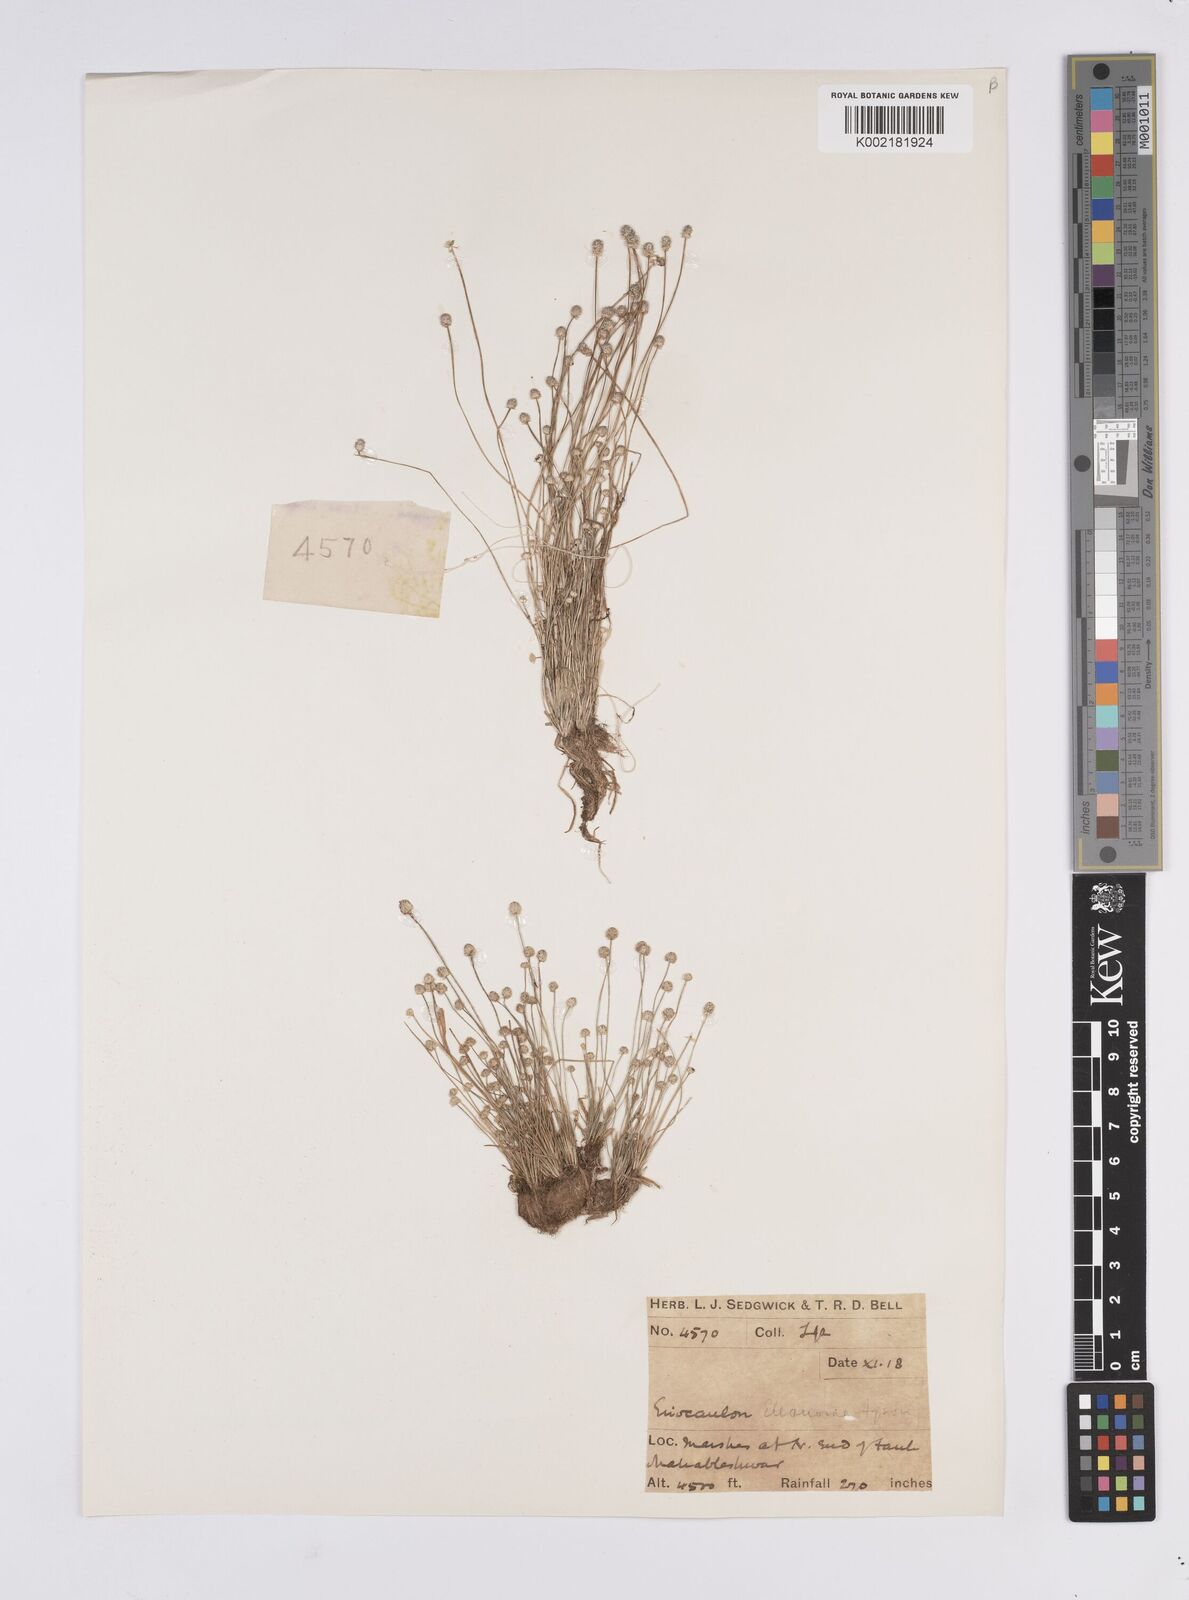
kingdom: Plantae
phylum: Tracheophyta
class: Liliopsida
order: Poales
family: Eriocaulaceae
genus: Eriocaulon
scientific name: Eriocaulon elenorae
